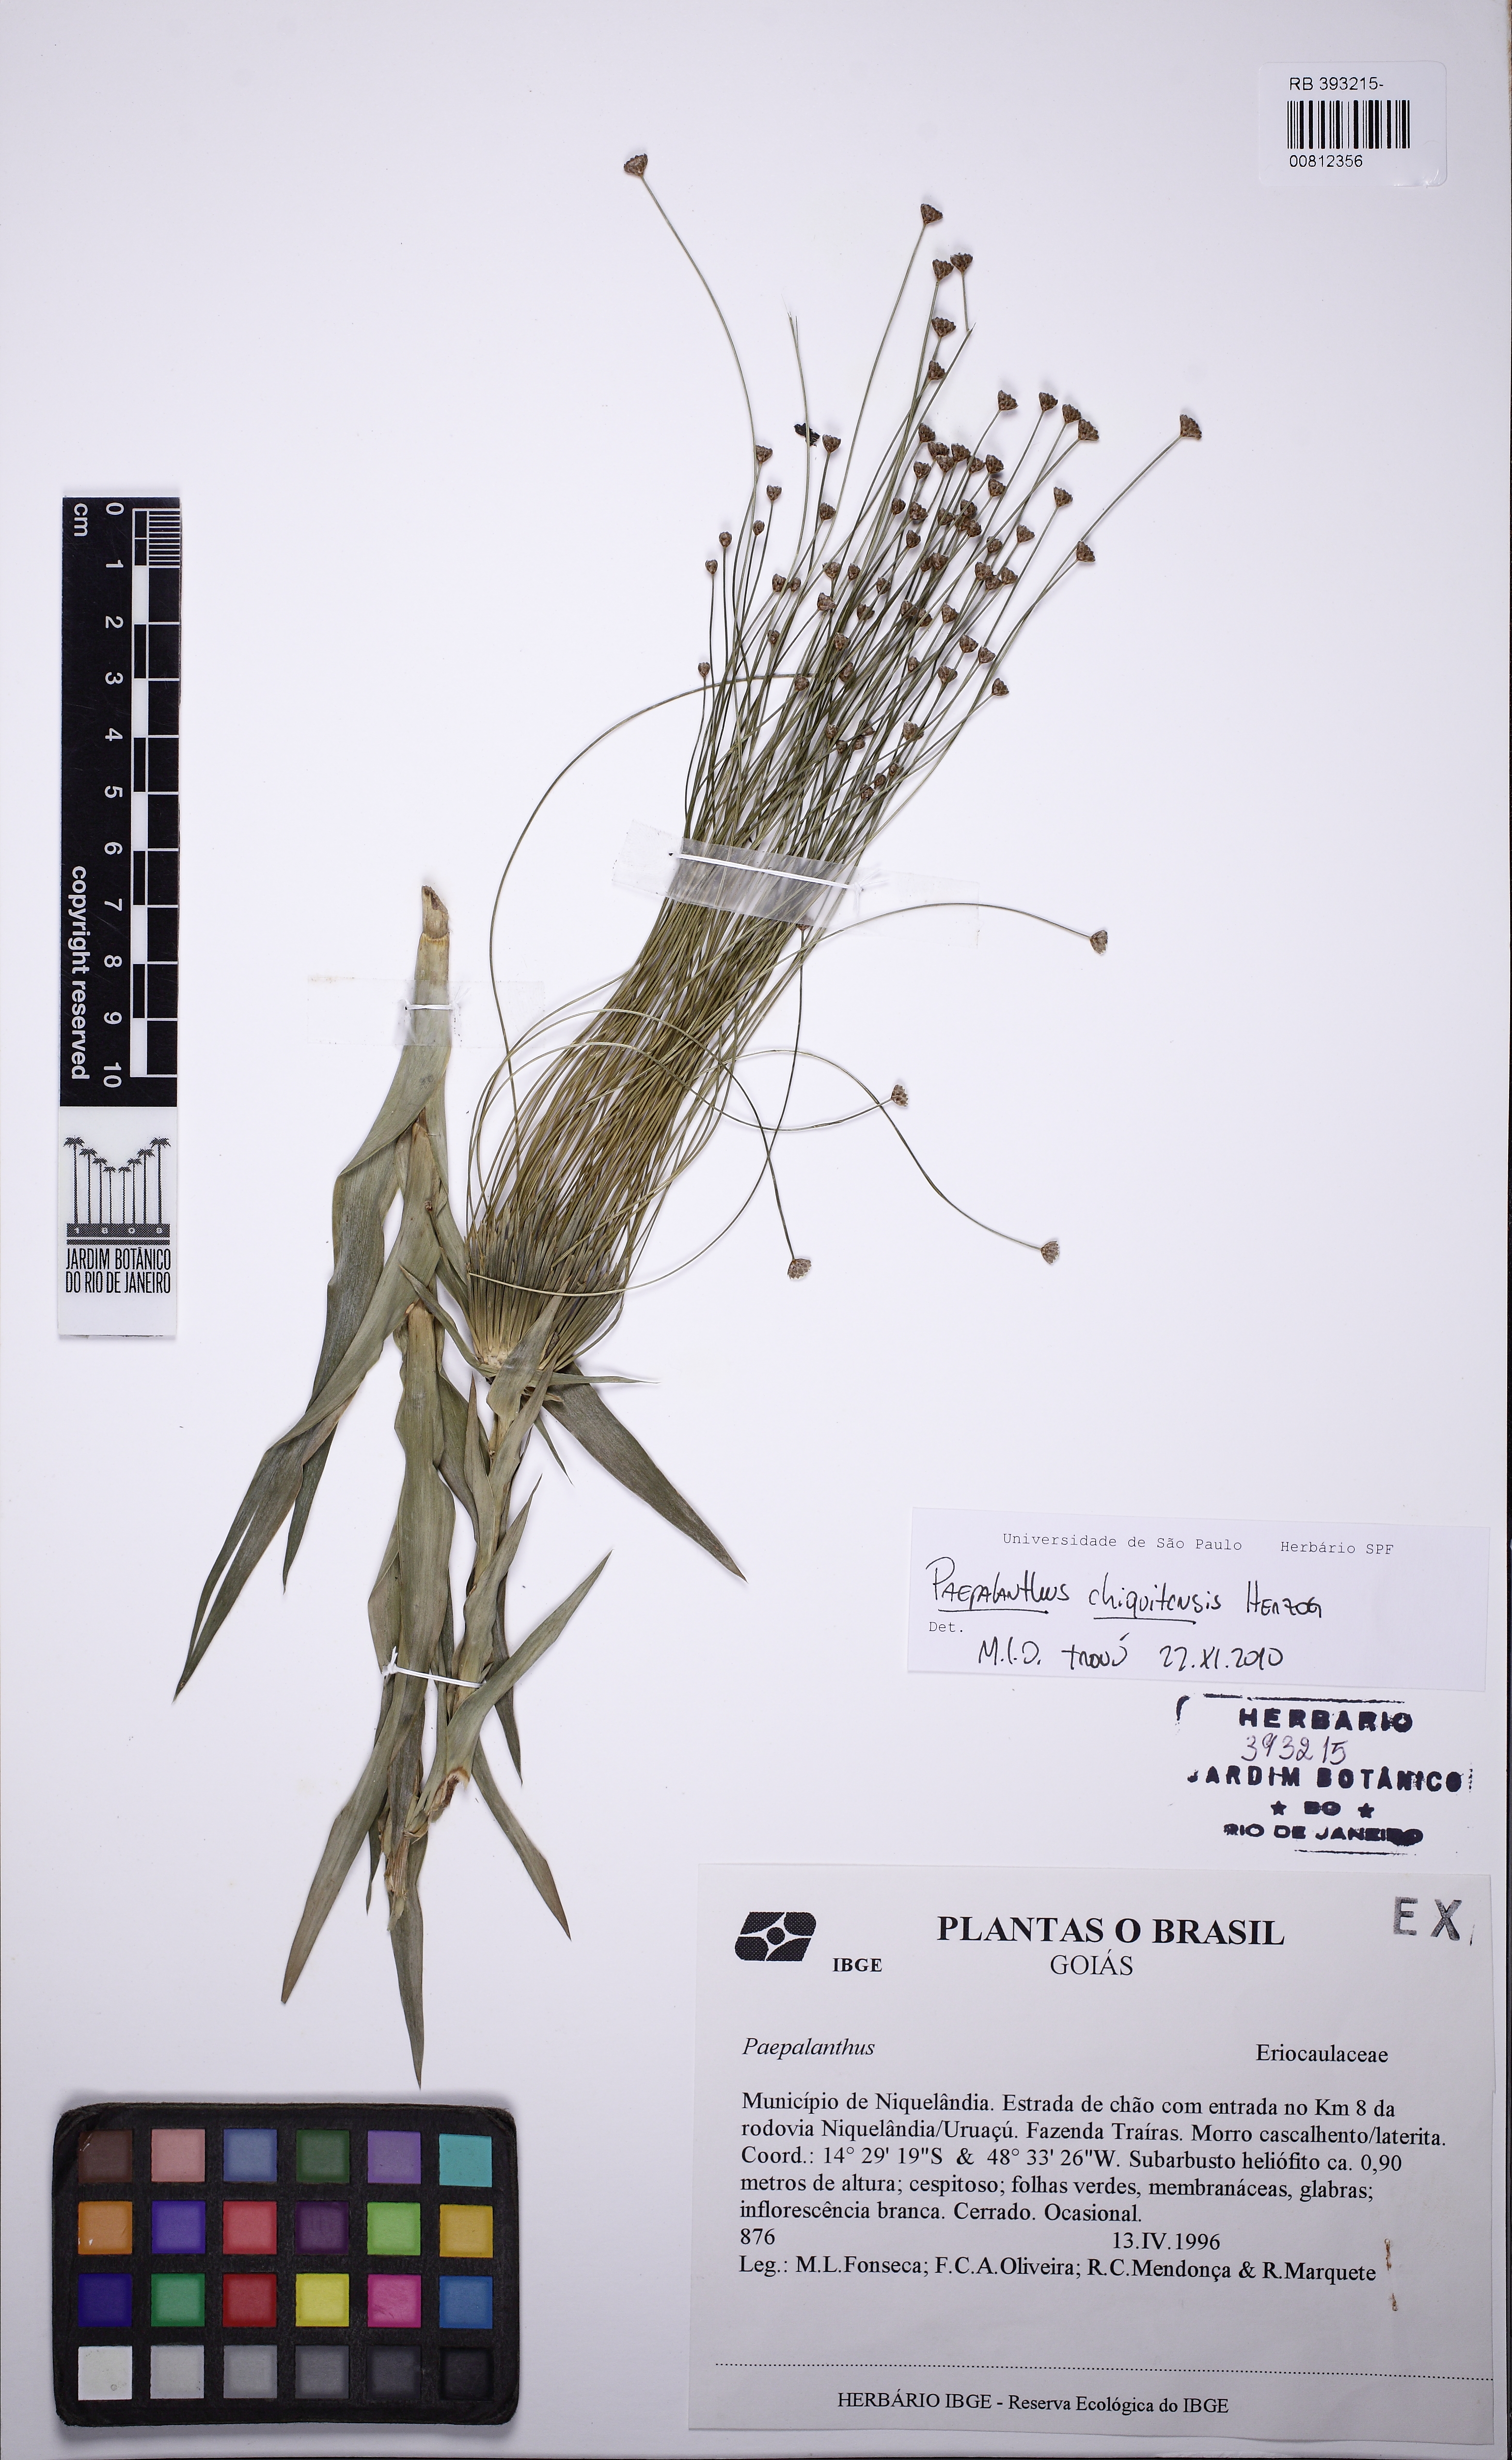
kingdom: Plantae
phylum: Tracheophyta
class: Liliopsida
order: Poales
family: Eriocaulaceae
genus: Paepalanthus
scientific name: Paepalanthus chiquitensis
